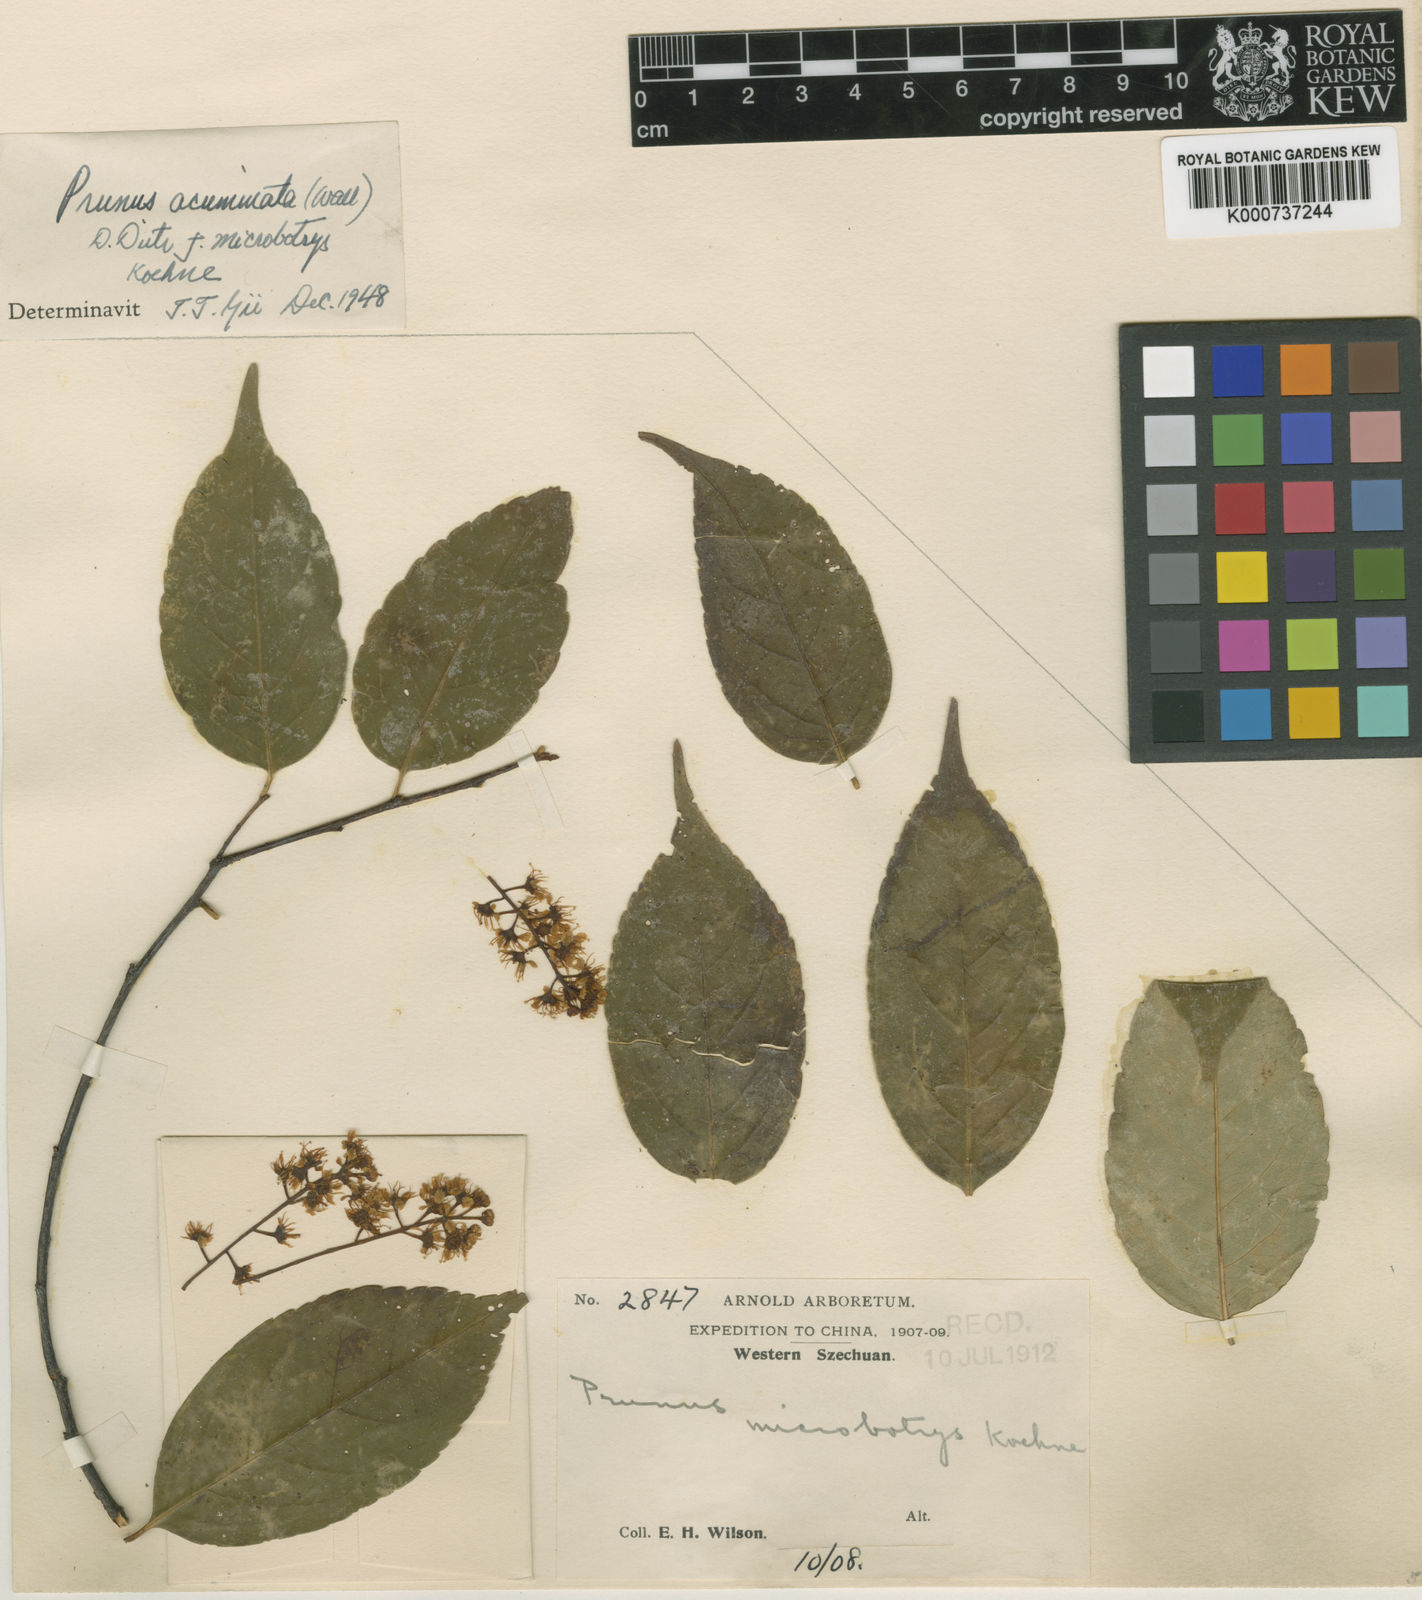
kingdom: Plantae
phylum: Tracheophyta
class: Magnoliopsida
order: Rosales
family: Rosaceae
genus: Prunus
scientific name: Prunus undulata
